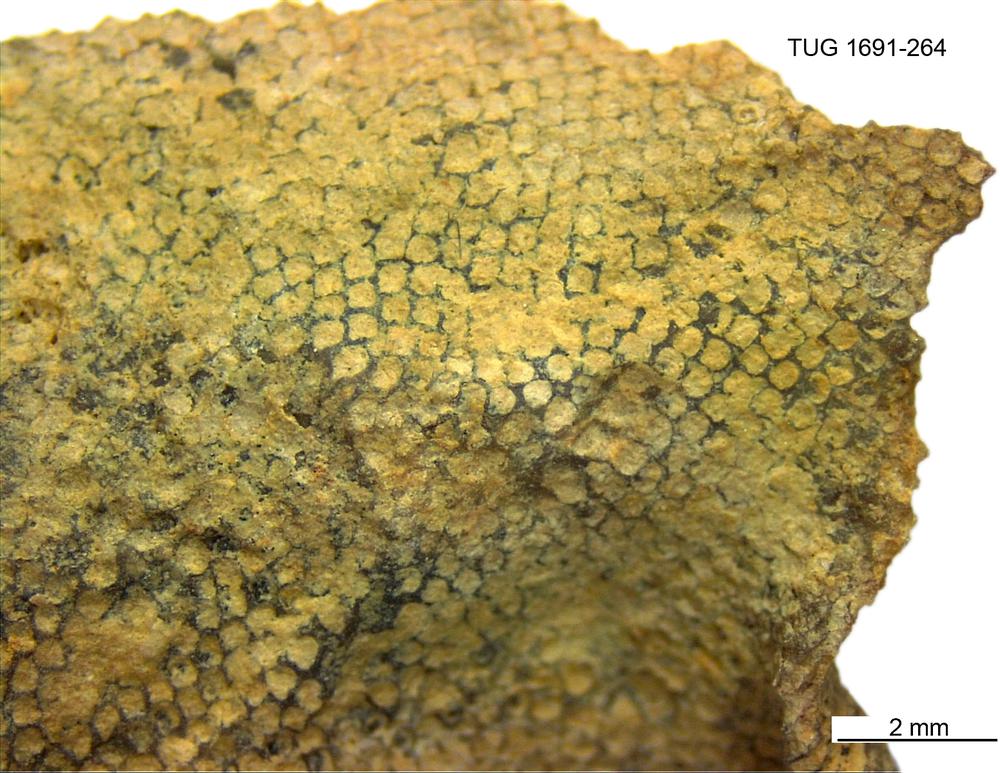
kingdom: Animalia
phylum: Bryozoa
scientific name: Bryozoa
